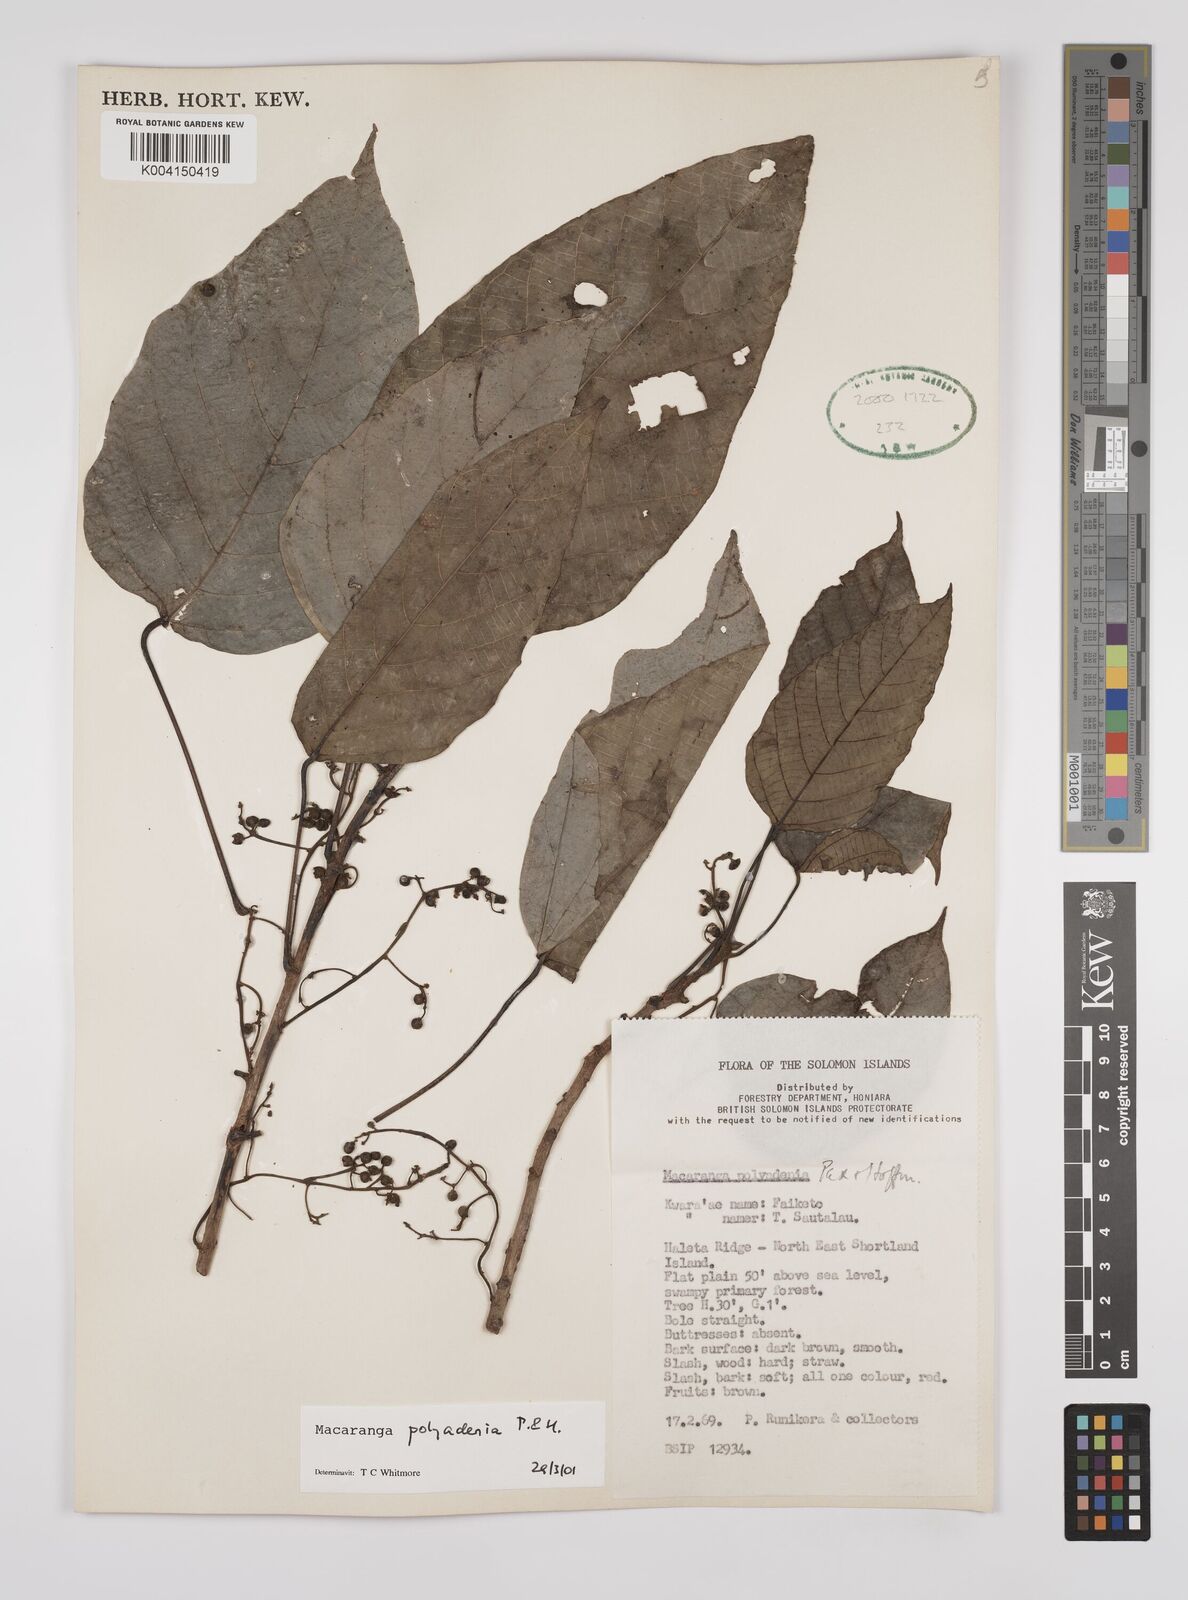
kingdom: Plantae
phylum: Tracheophyta
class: Magnoliopsida
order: Malpighiales
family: Euphorbiaceae
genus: Macaranga
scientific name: Macaranga polyadenia
